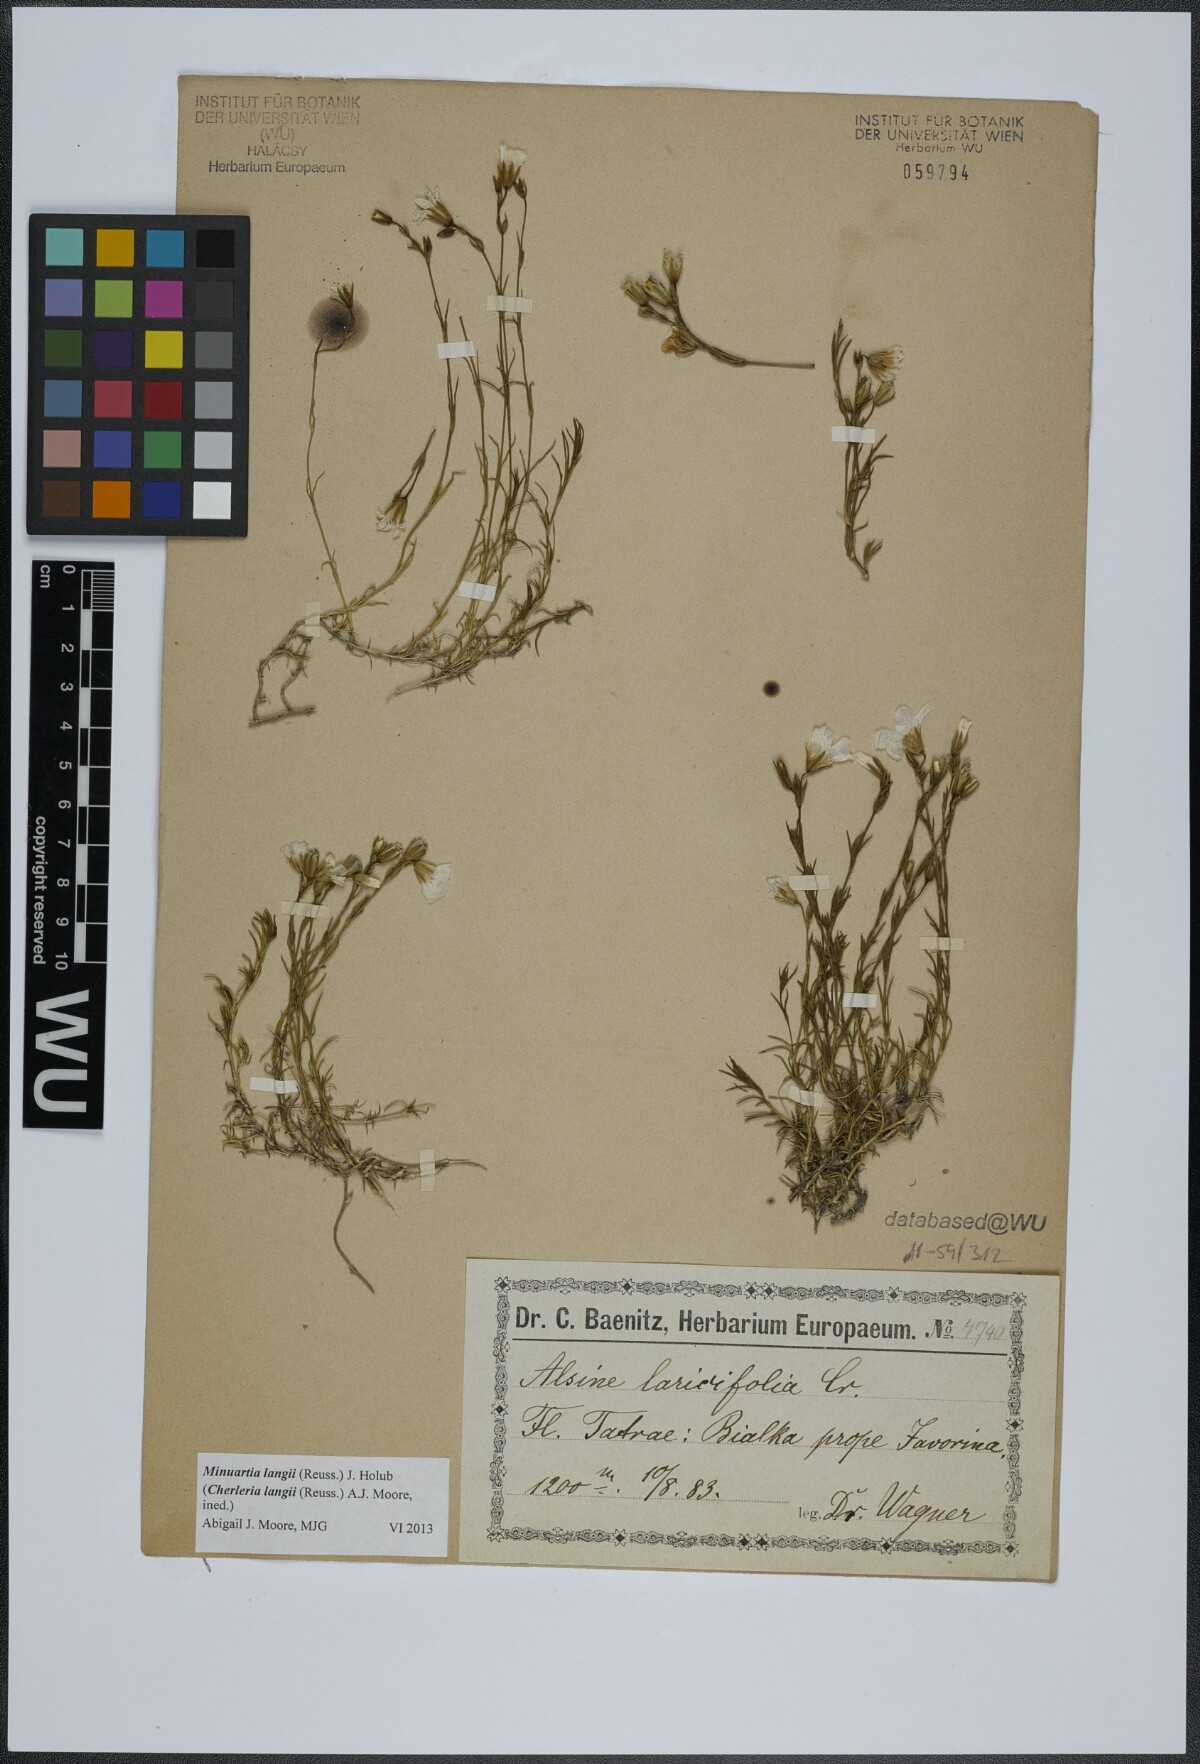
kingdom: Plantae
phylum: Tracheophyta
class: Magnoliopsida
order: Caryophyllales
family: Caryophyllaceae
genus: Cherleria
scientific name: Cherleria langii
